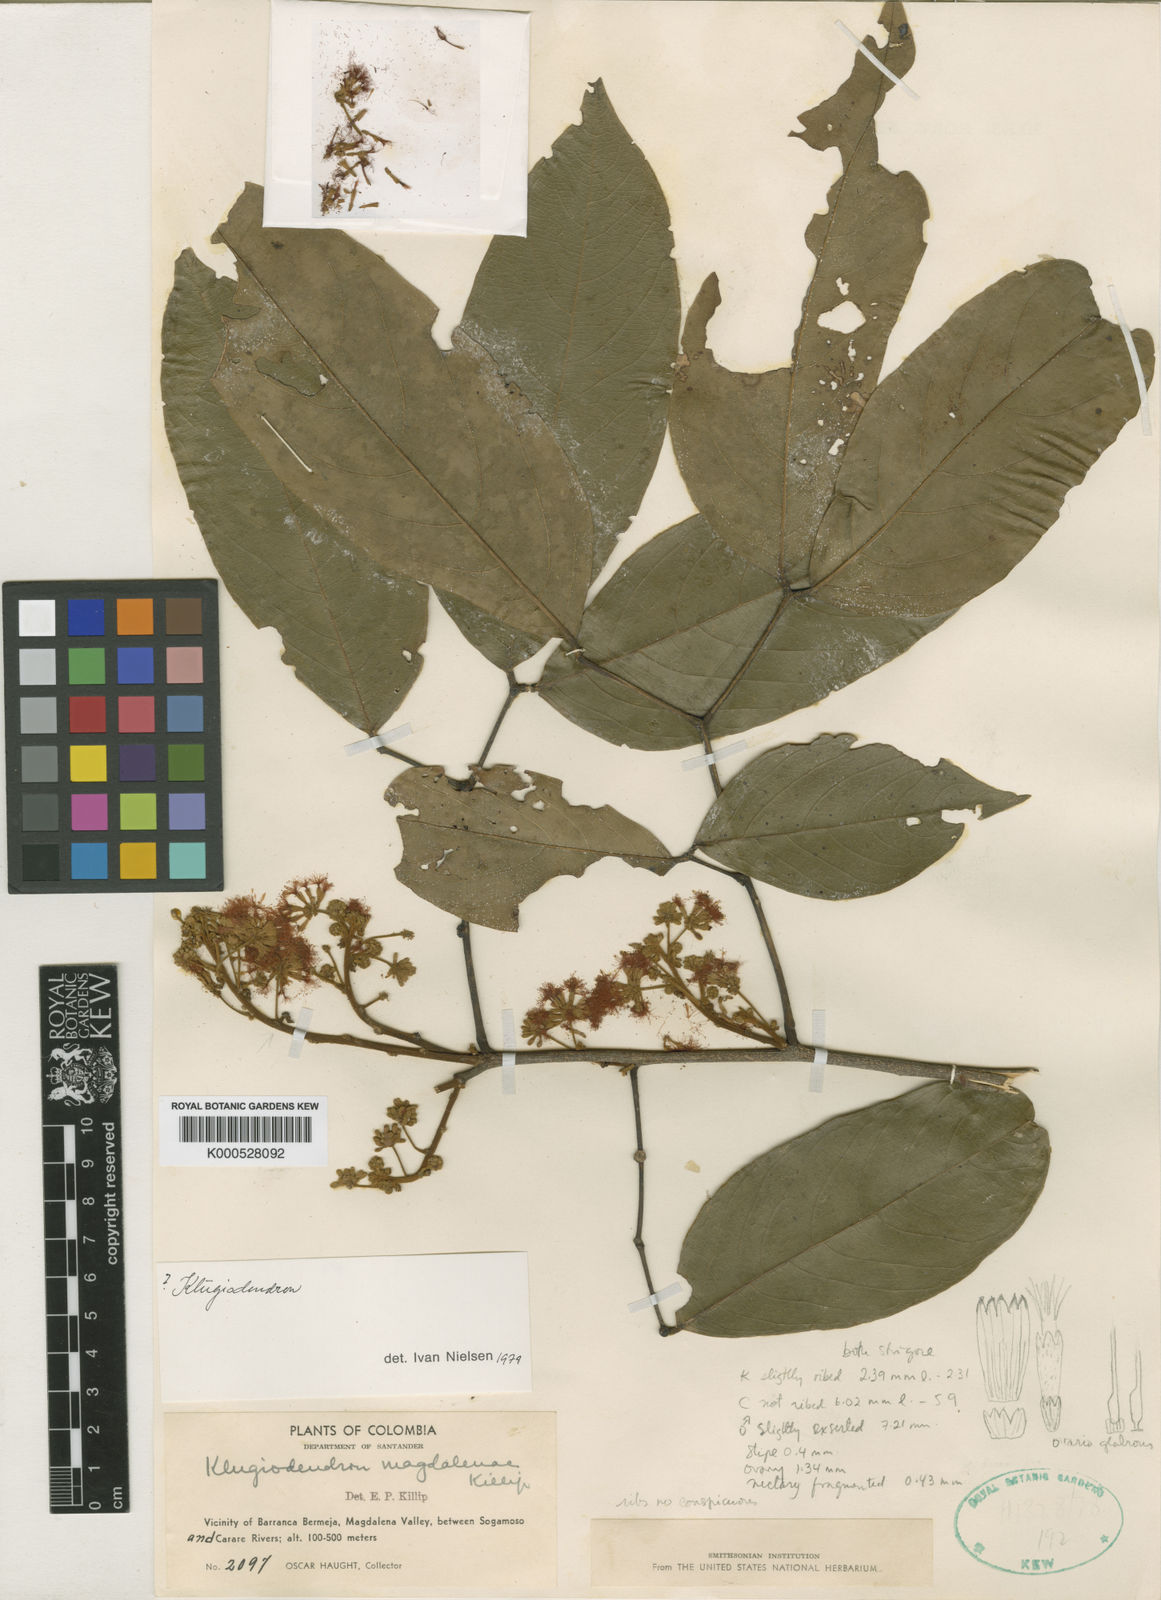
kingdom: Plantae
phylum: Tracheophyta
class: Magnoliopsida
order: Fabales
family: Fabaceae
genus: Zygia
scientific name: Zygia ocumarensis
